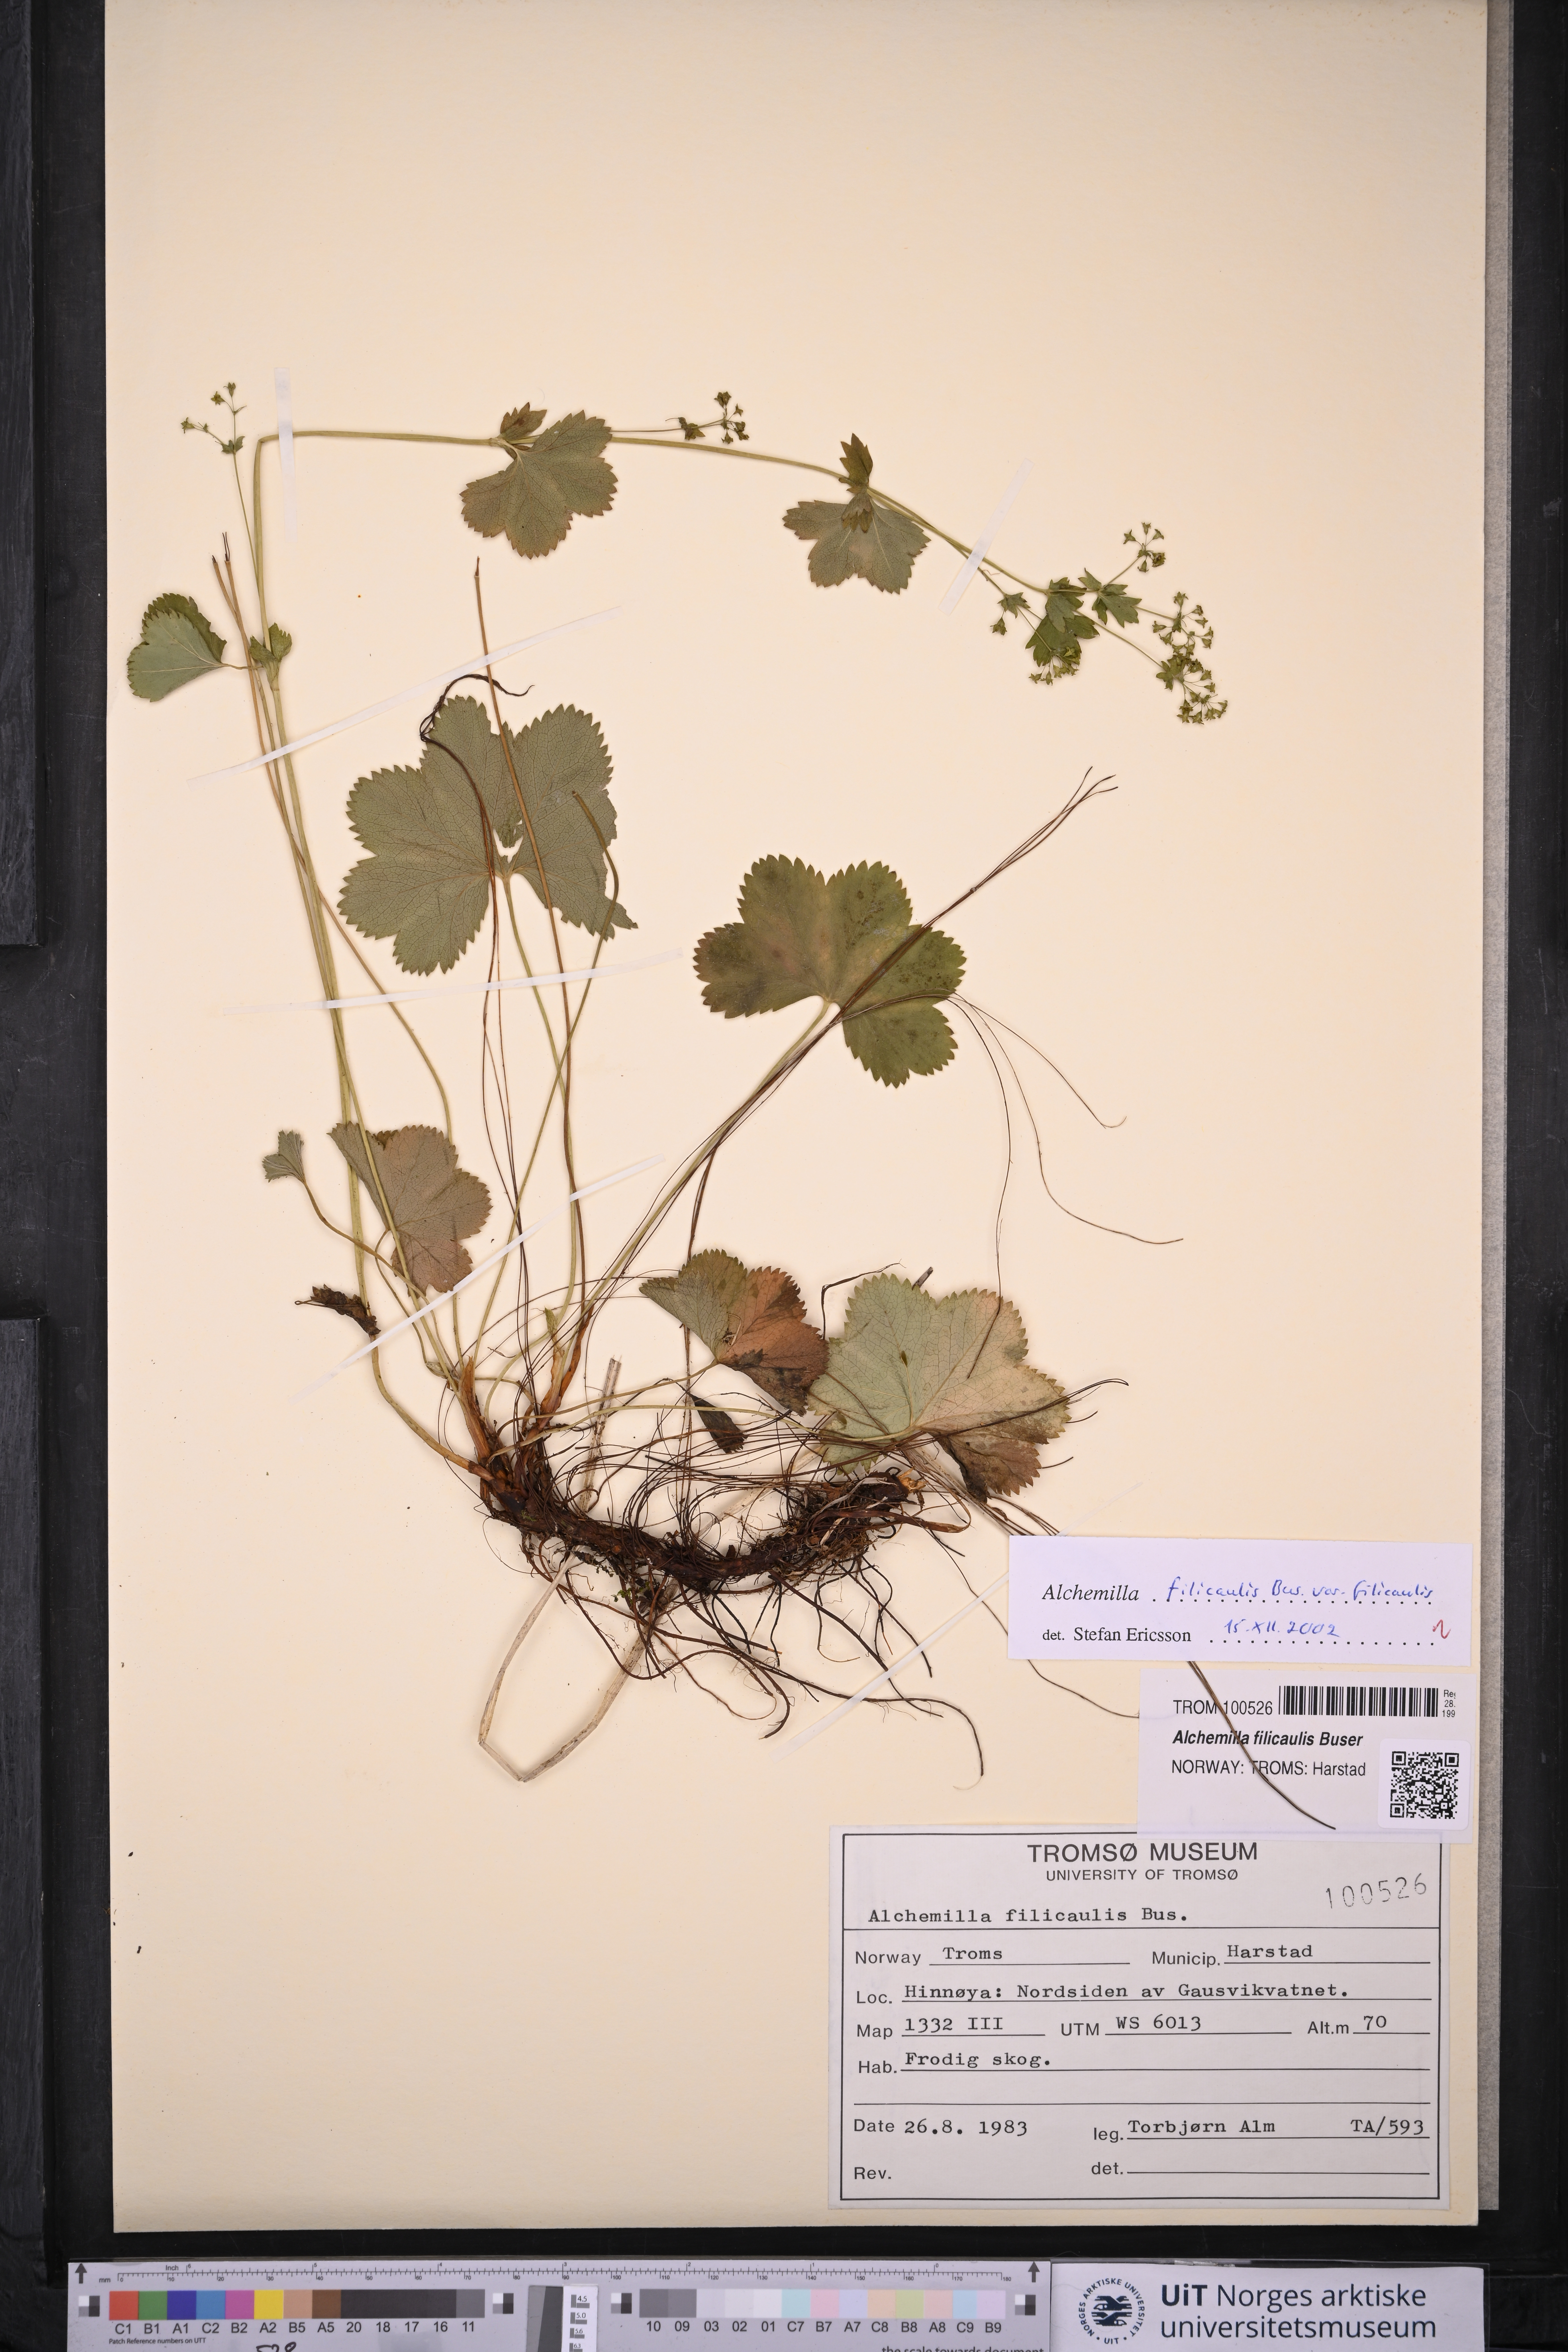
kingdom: Plantae
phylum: Tracheophyta
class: Magnoliopsida
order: Rosales
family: Rosaceae
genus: Alchemilla
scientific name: Alchemilla filicaulis
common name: Hairy lady's-mantle
